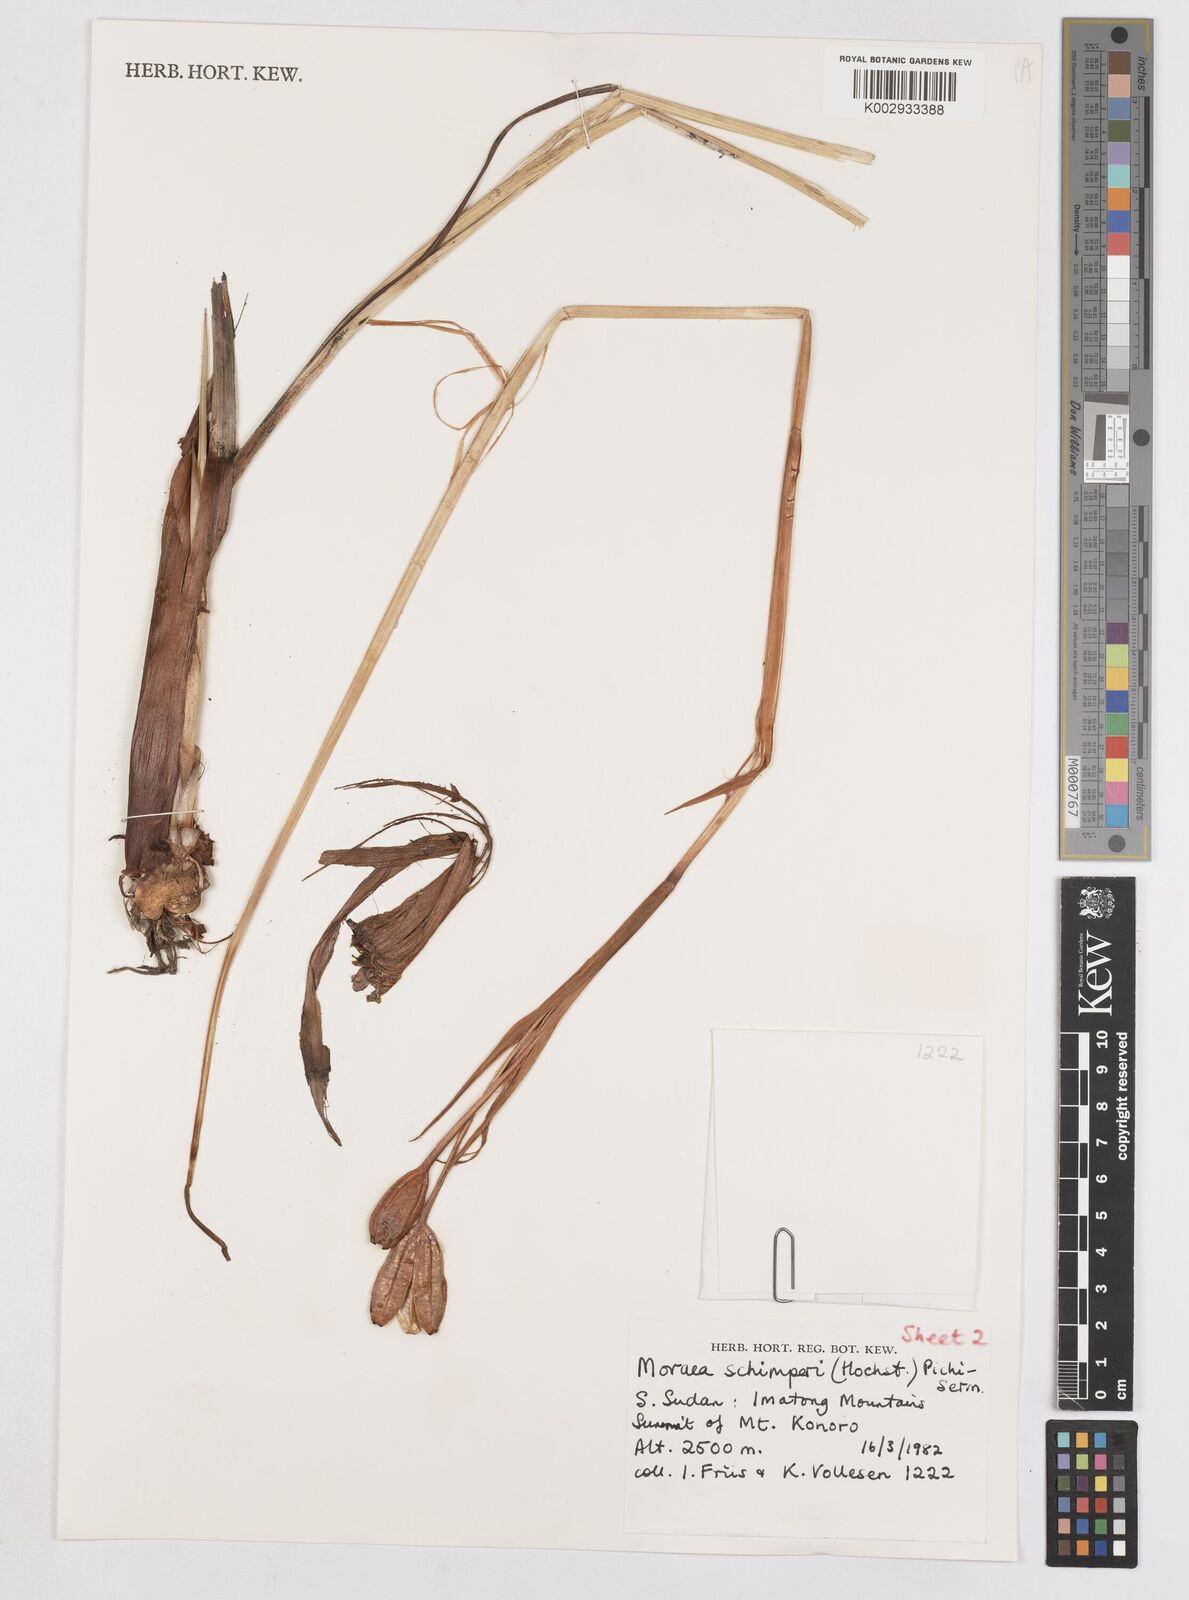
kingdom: Plantae
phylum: Tracheophyta
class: Liliopsida
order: Asparagales
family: Iridaceae
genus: Moraea
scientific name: Moraea schimperi
